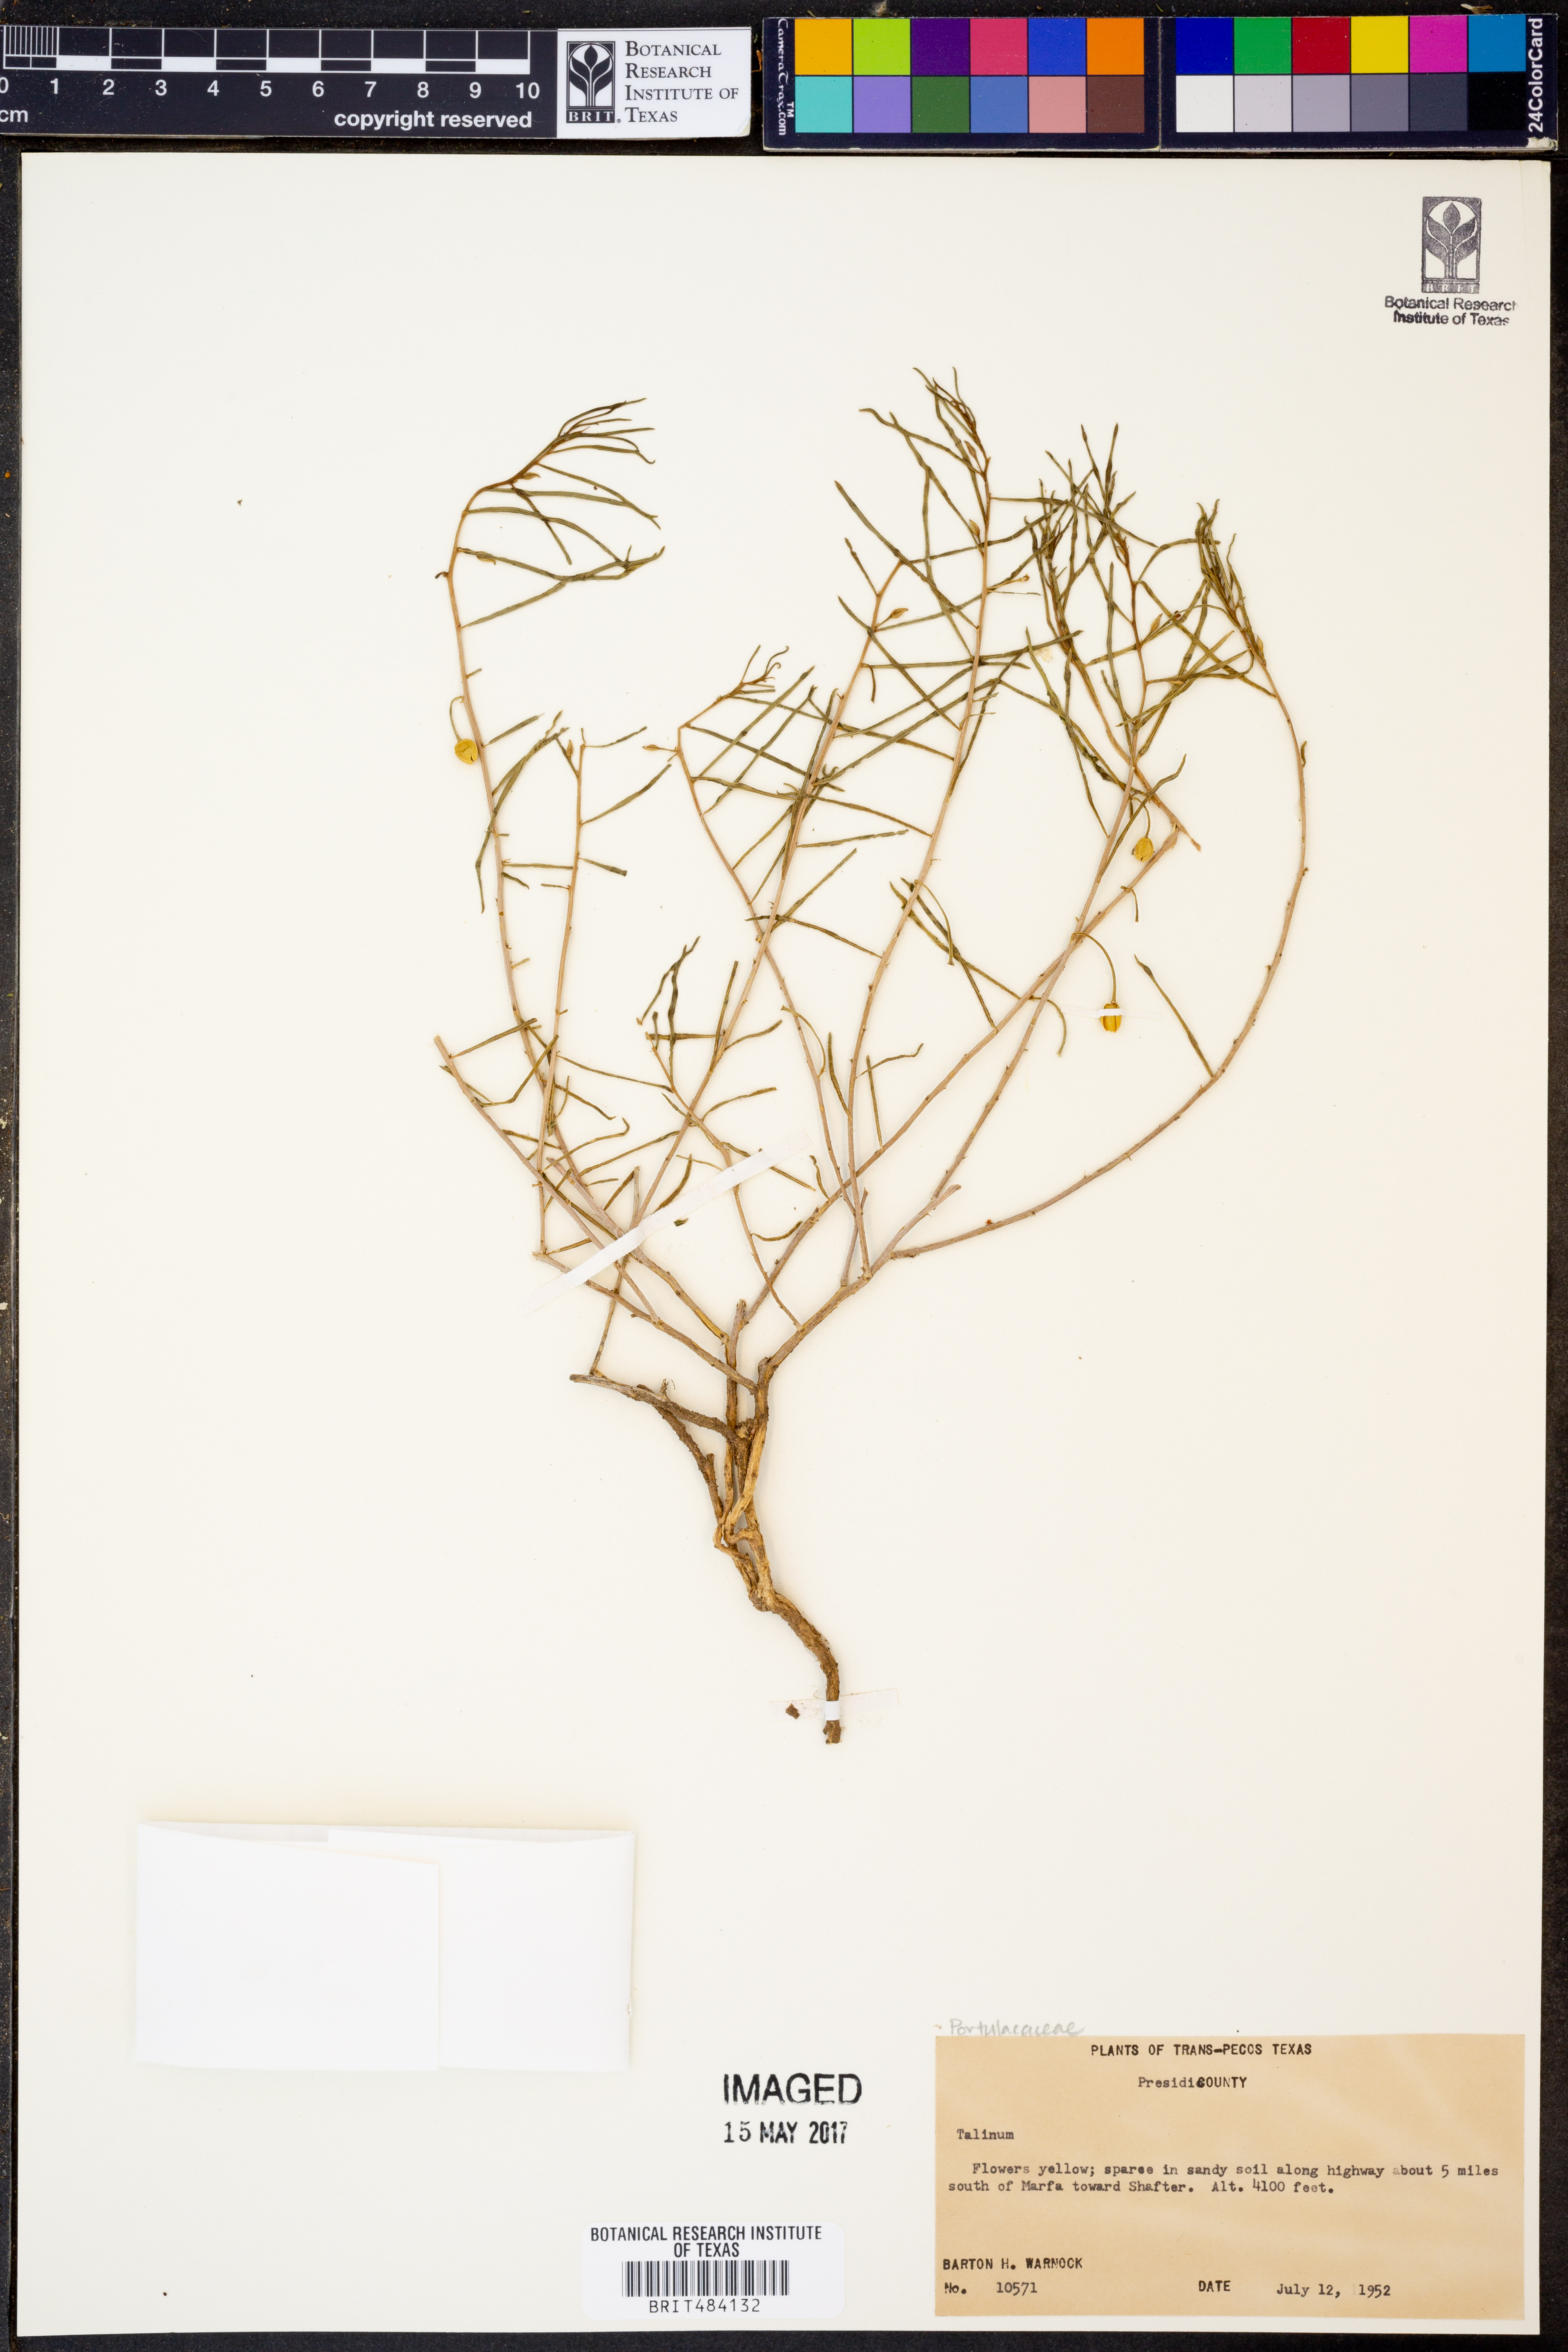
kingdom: Plantae
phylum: Tracheophyta
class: Magnoliopsida
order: Caryophyllales
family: Talinaceae
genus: Talinum
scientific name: Talinum
